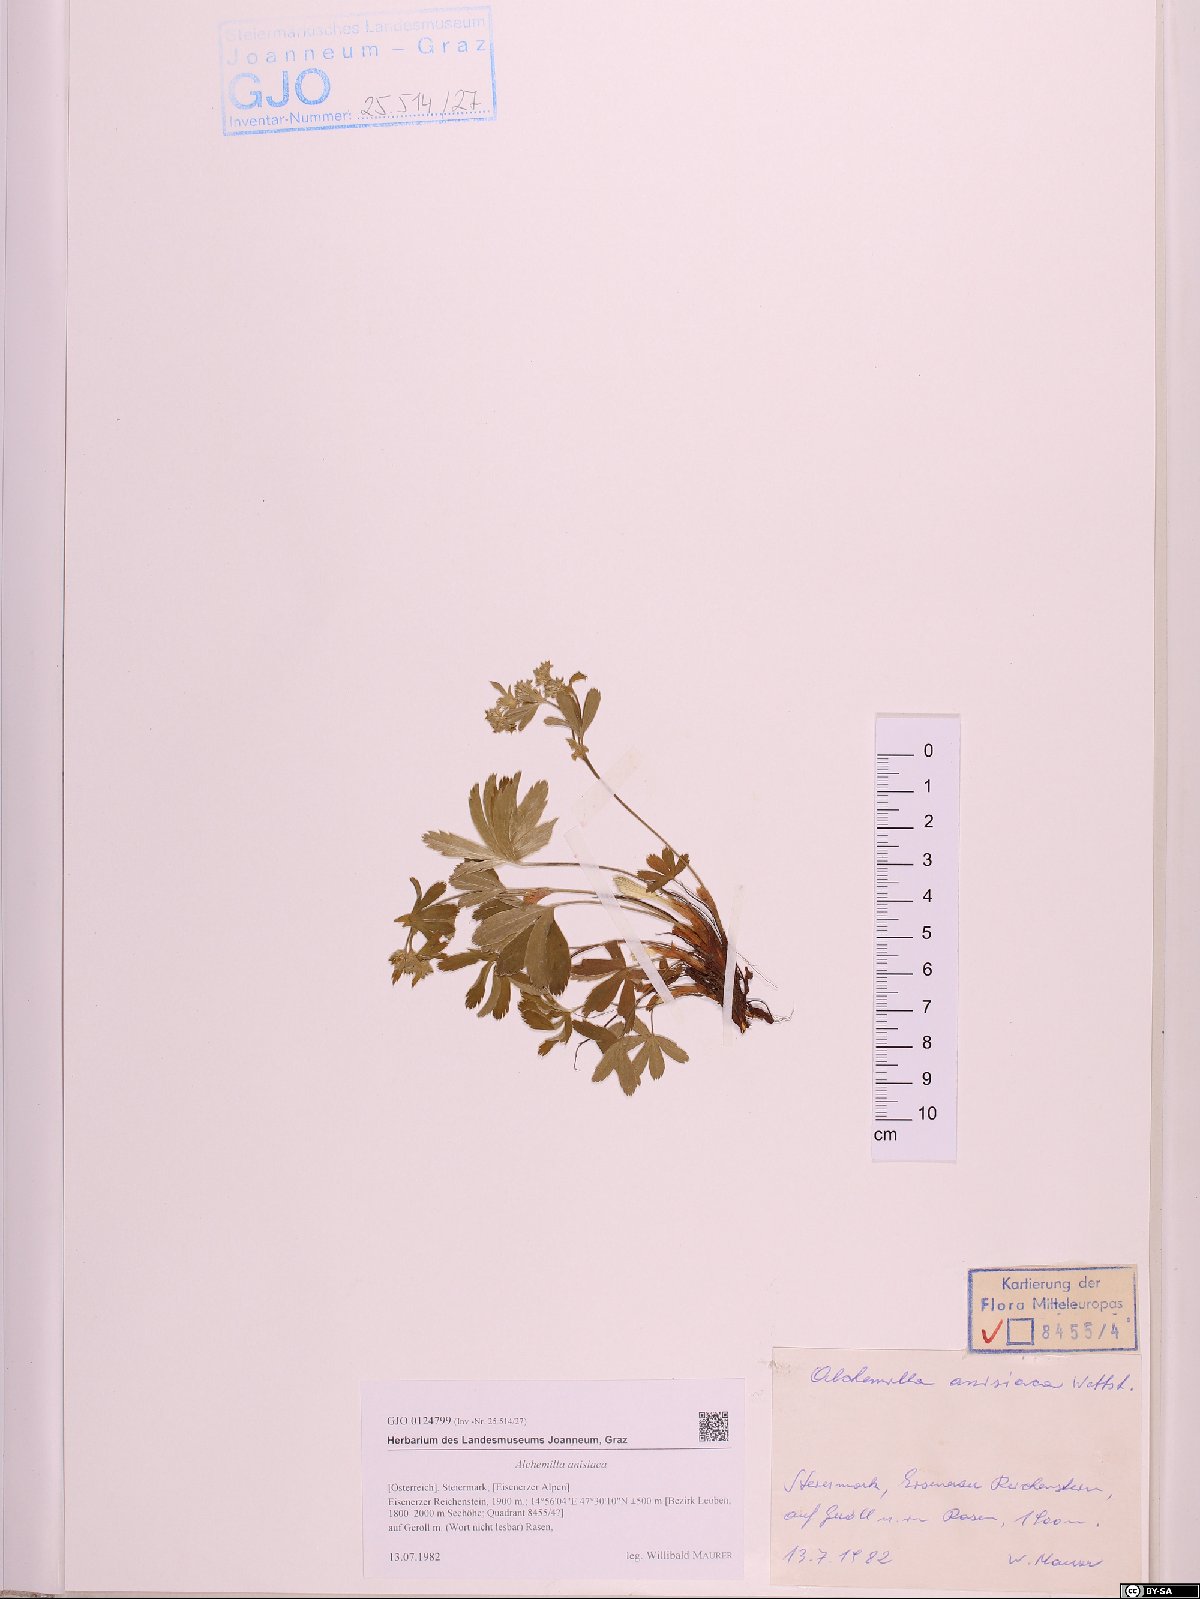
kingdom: Plantae
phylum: Tracheophyta
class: Magnoliopsida
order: Rosales
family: Rosaceae
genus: Alchemilla
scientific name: Alchemilla anisiaca
